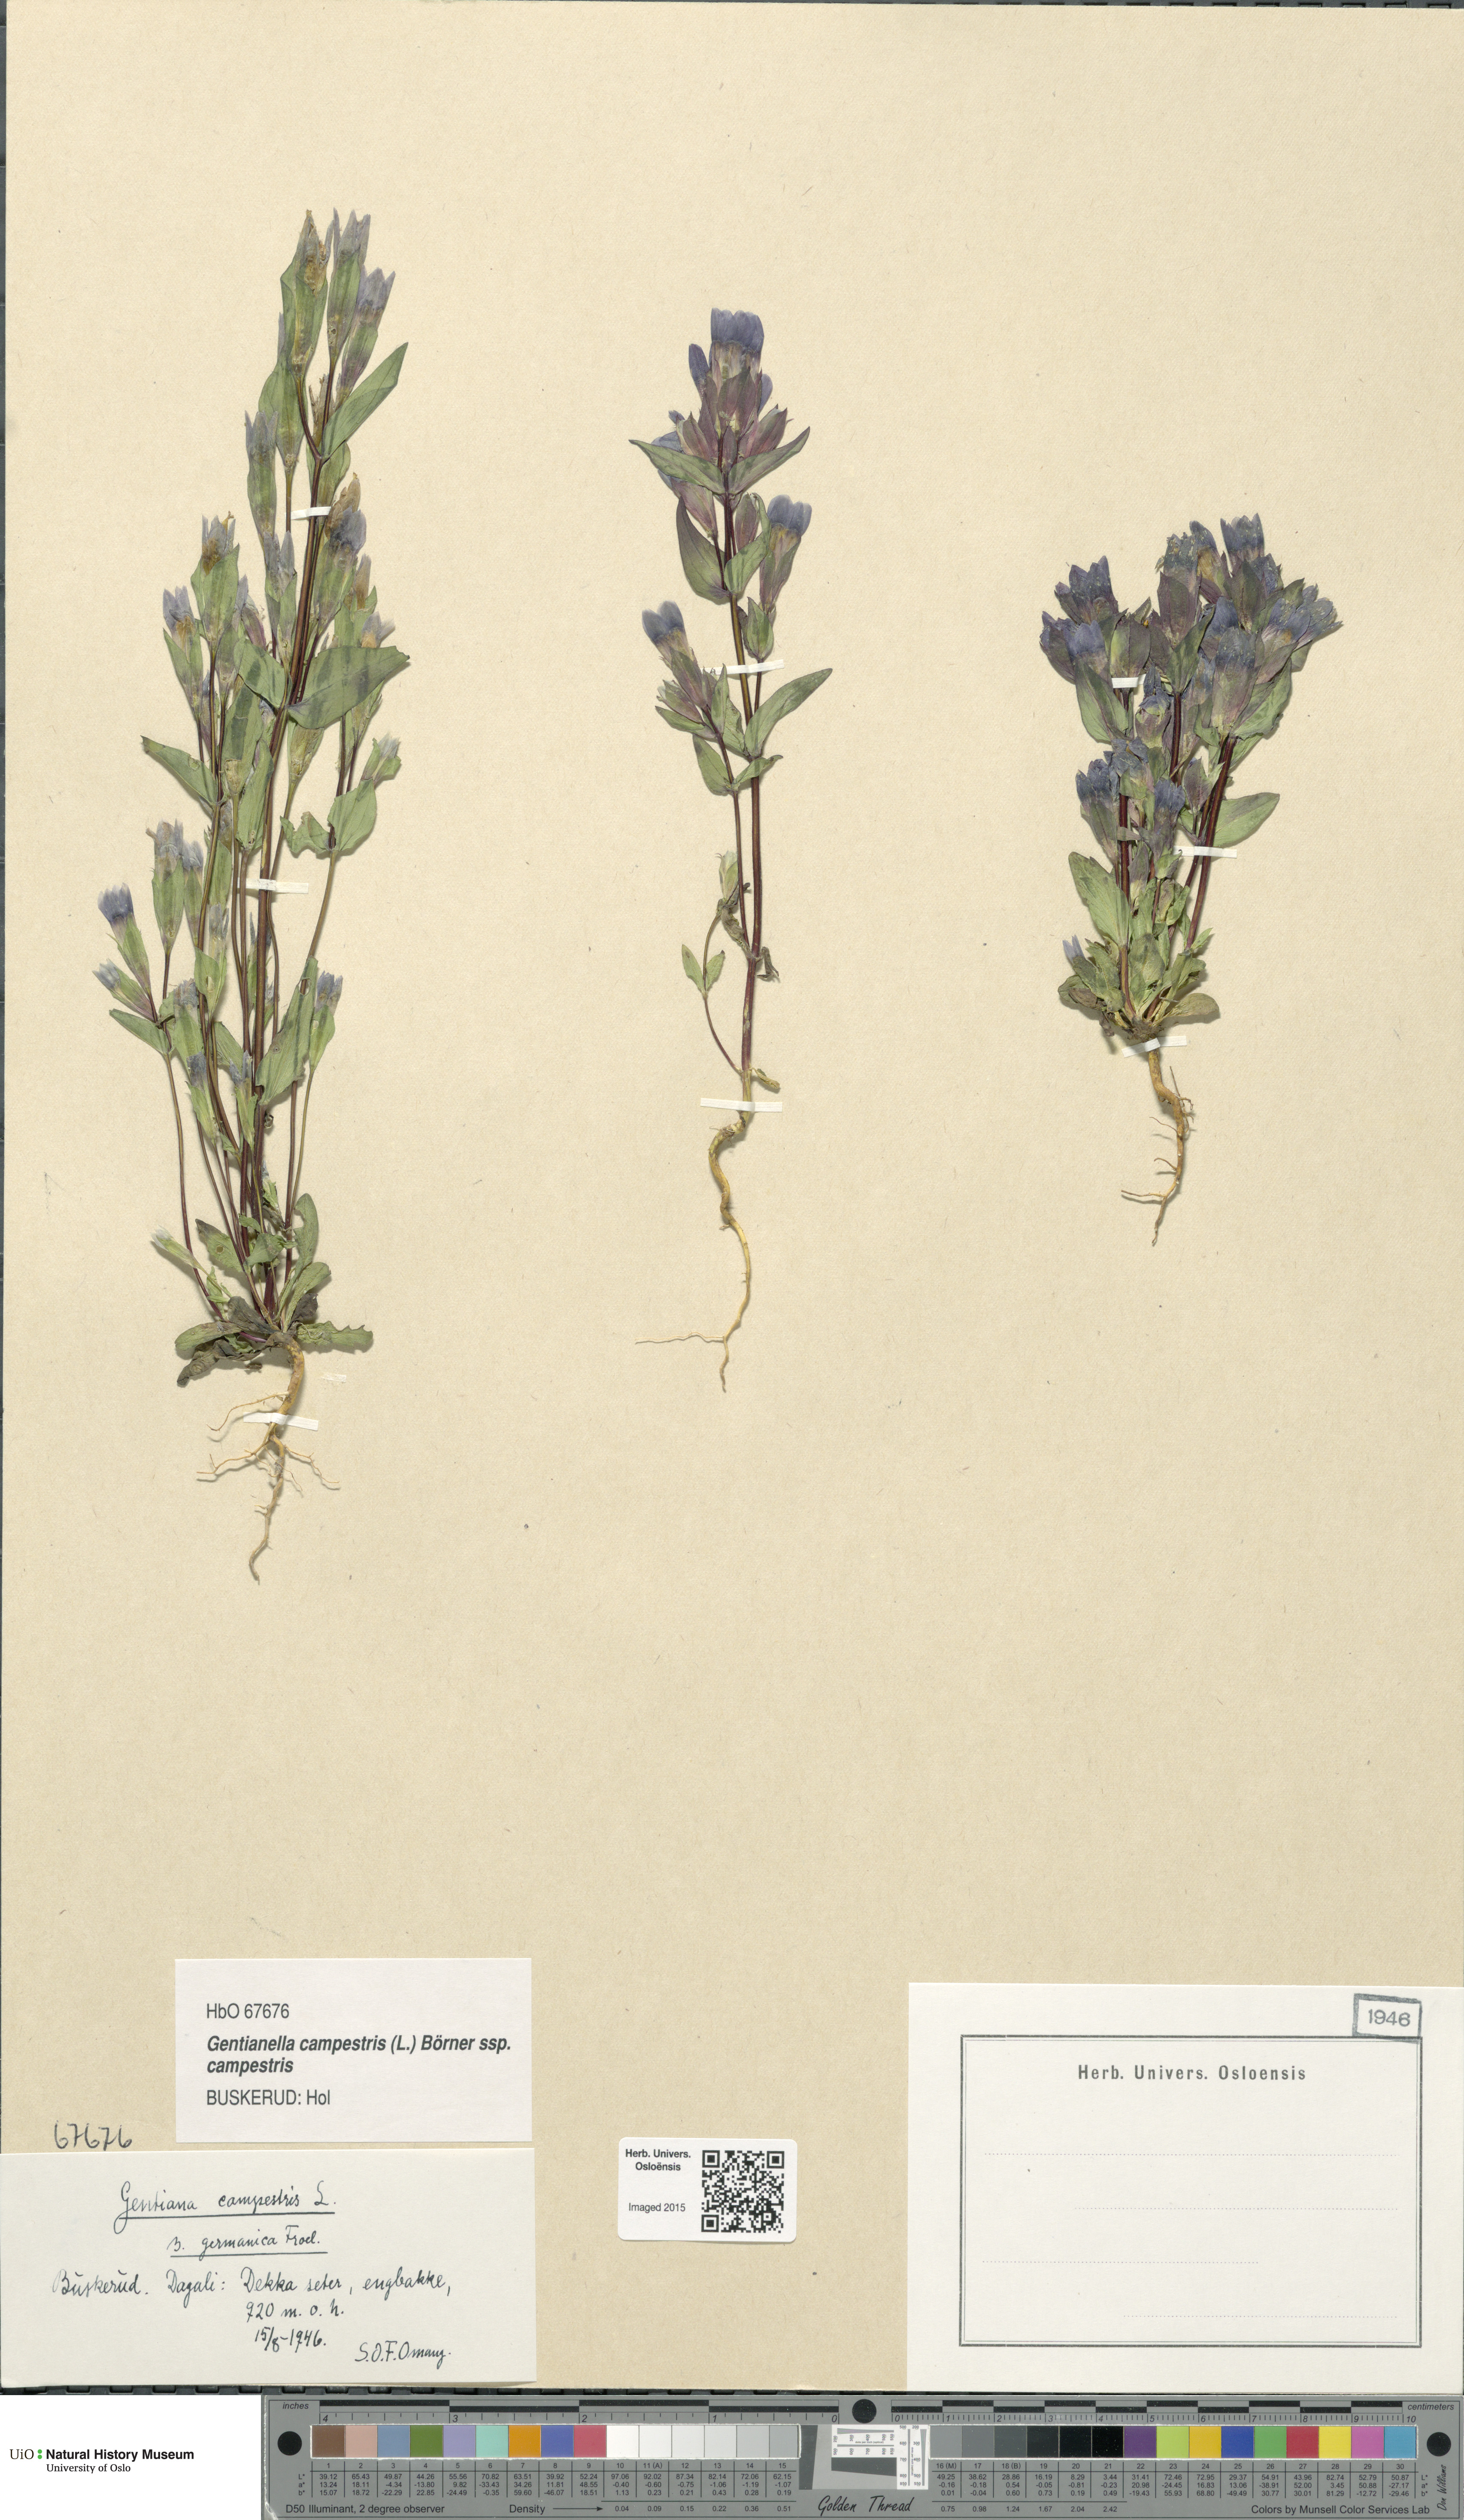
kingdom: Plantae
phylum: Tracheophyta
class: Magnoliopsida
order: Gentianales
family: Gentianaceae
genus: Gentianella
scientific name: Gentianella campestris
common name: Field gentian
